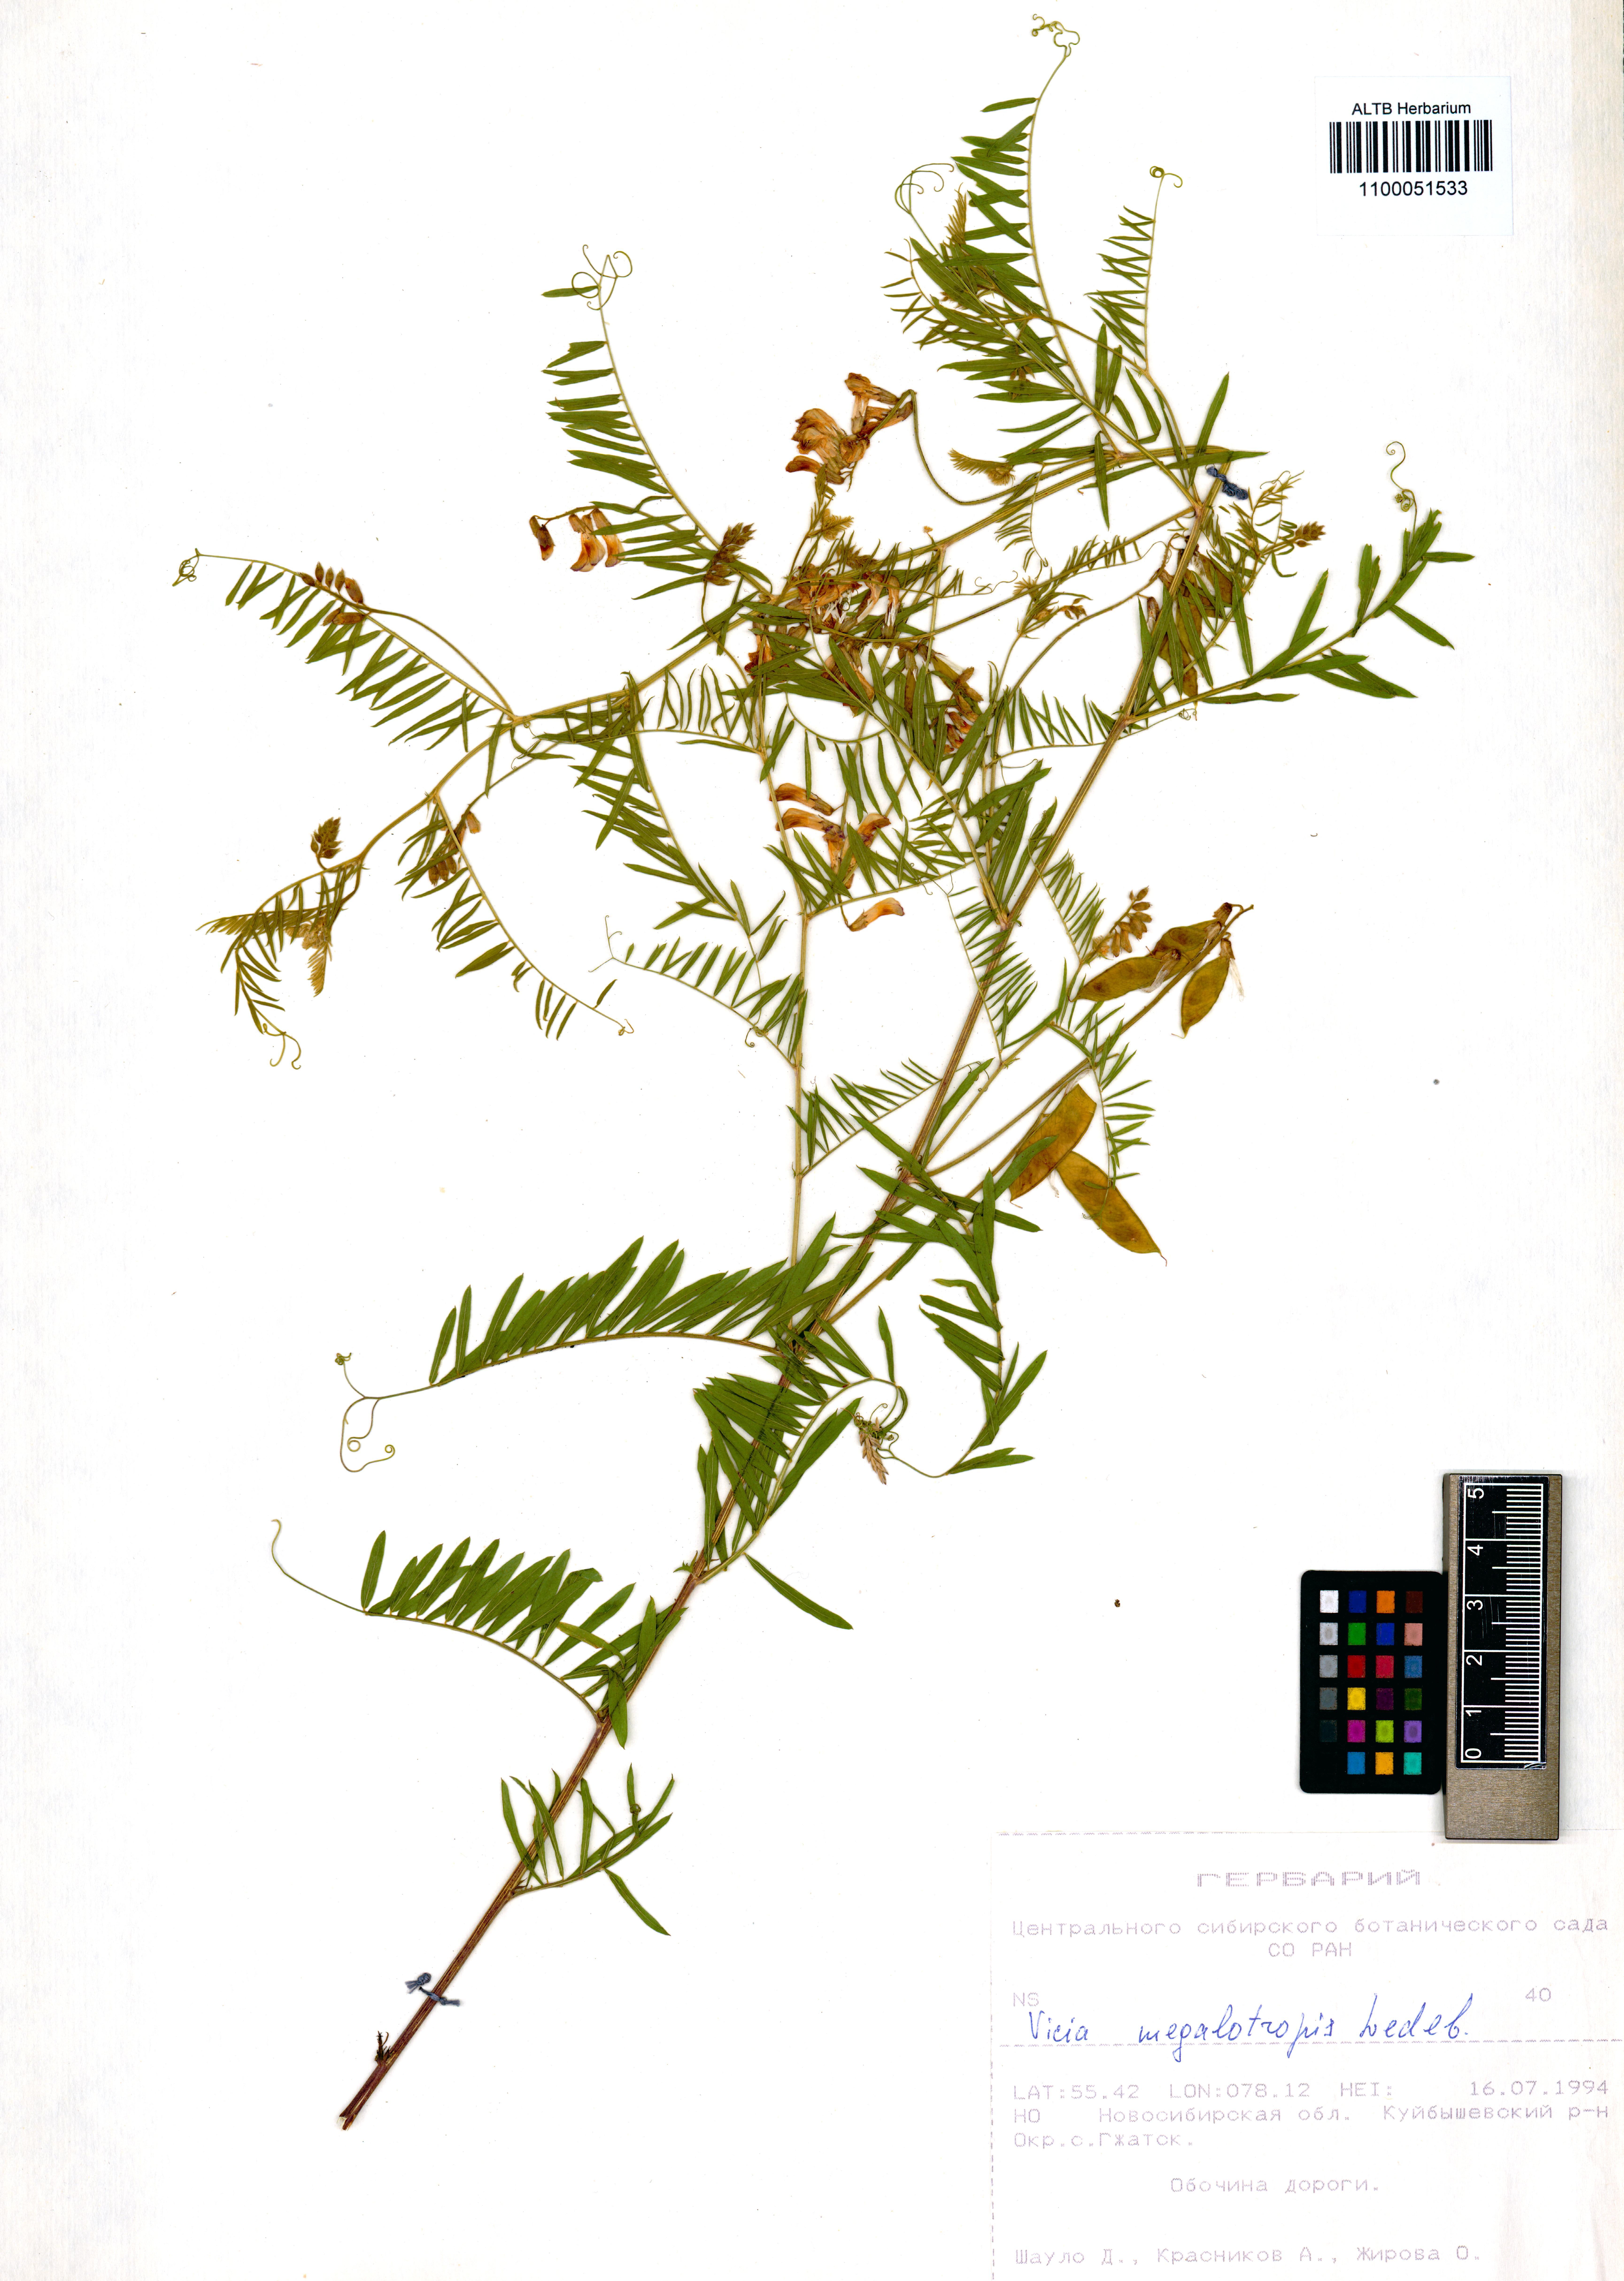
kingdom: Plantae
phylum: Tracheophyta
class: Magnoliopsida
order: Fabales
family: Fabaceae
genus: Vicia
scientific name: Vicia megalotropis
